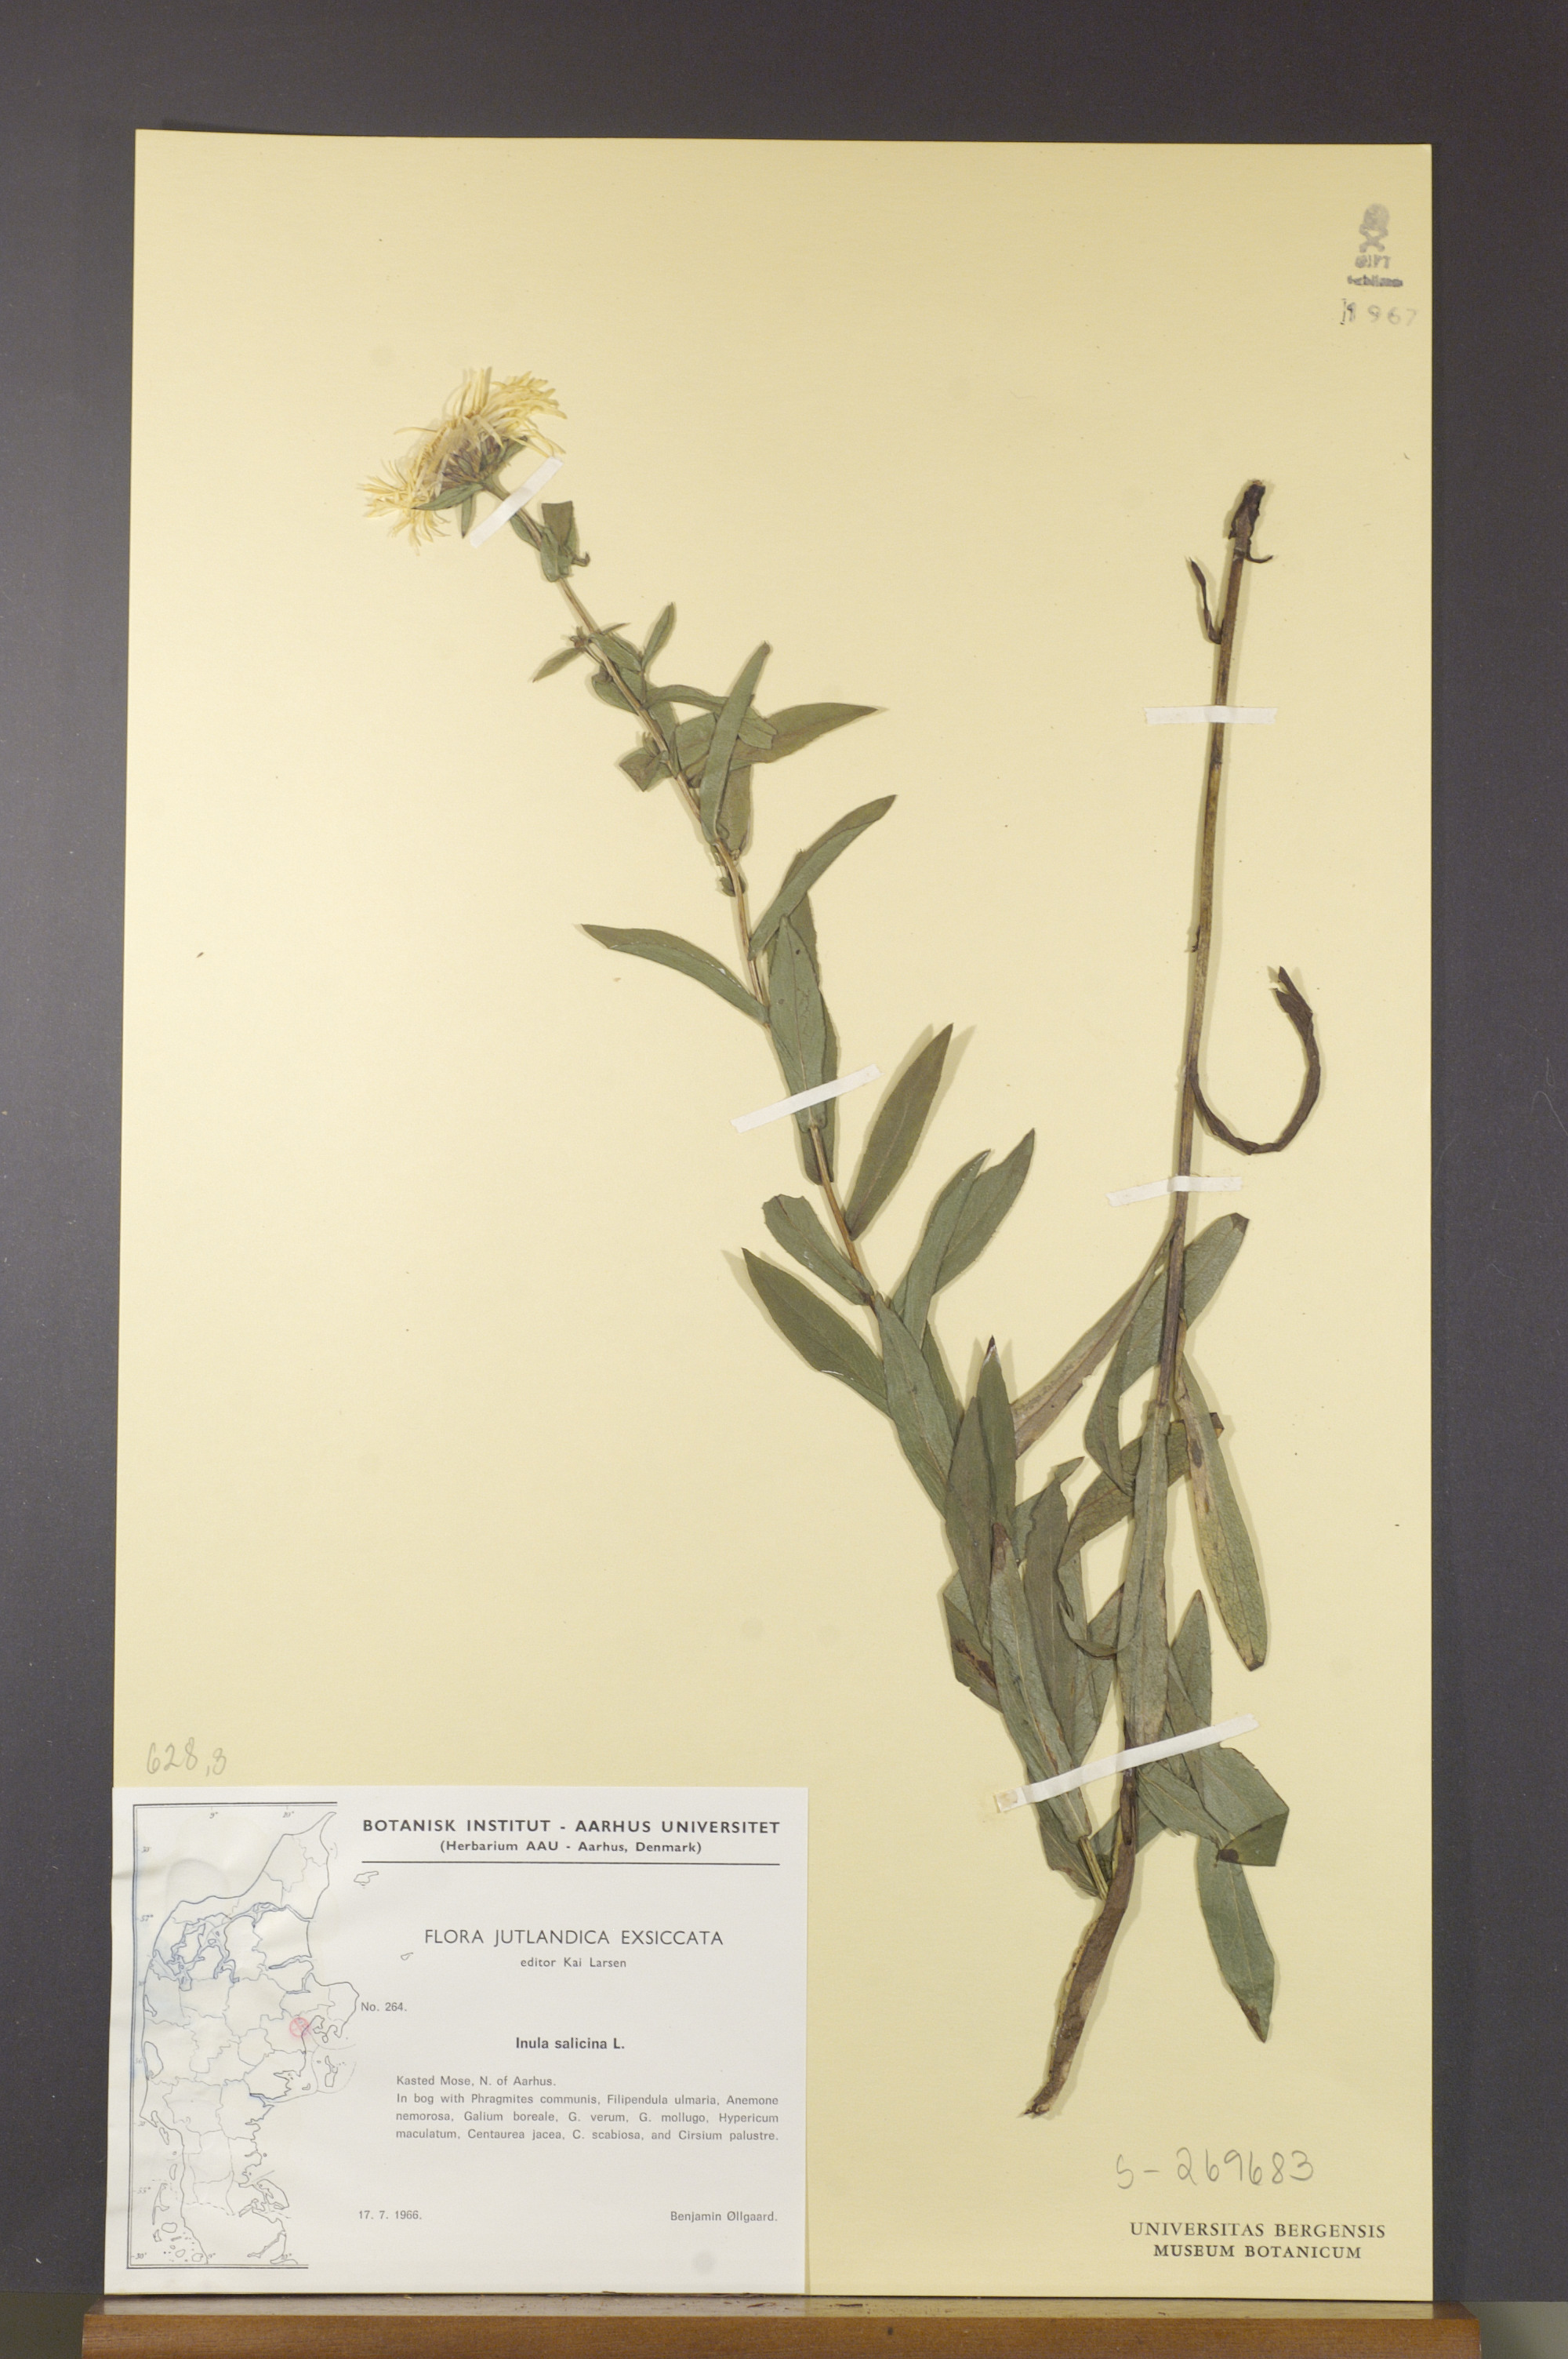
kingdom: Plantae
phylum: Tracheophyta
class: Magnoliopsida
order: Asterales
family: Asteraceae
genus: Pentanema
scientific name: Pentanema salicinum
